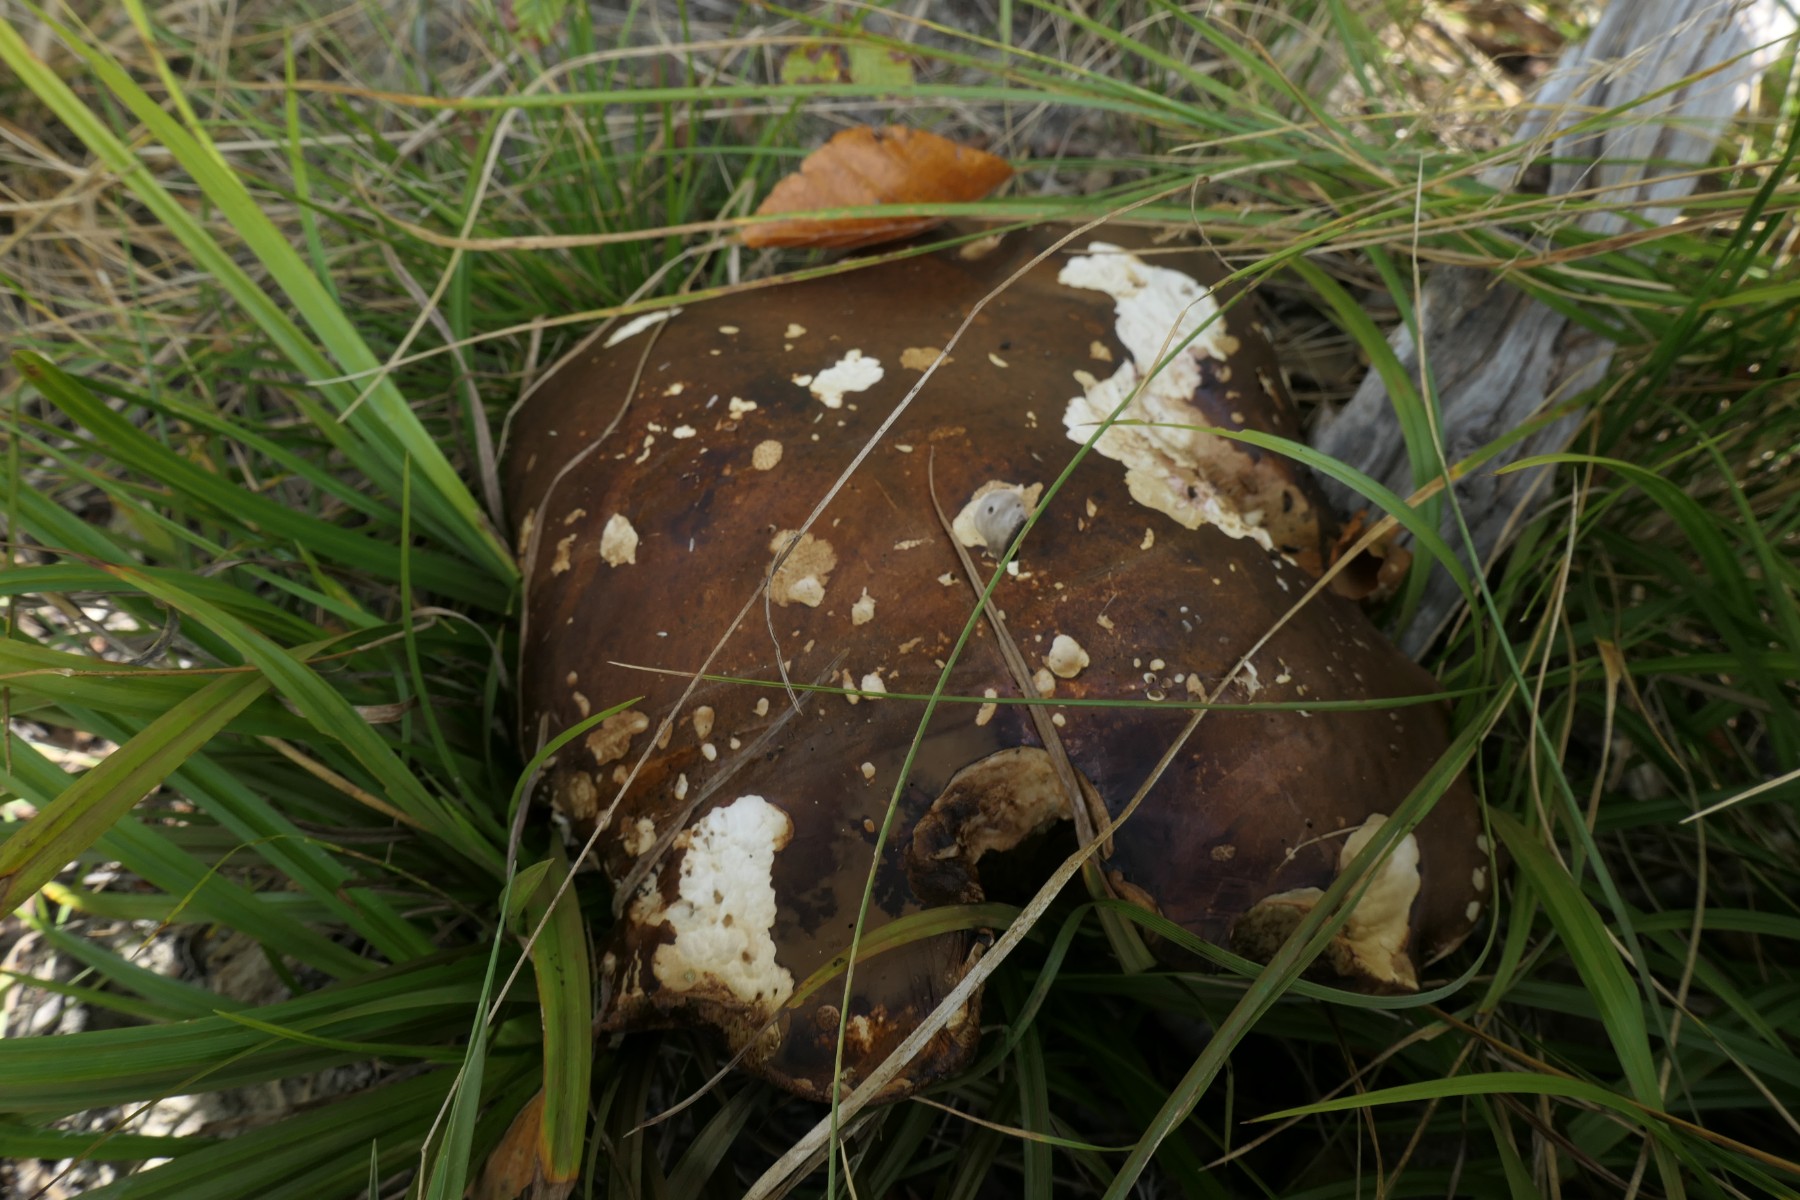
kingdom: Fungi
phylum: Basidiomycota
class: Agaricomycetes
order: Boletales
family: Boletaceae
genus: Boletus
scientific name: Boletus edulis
